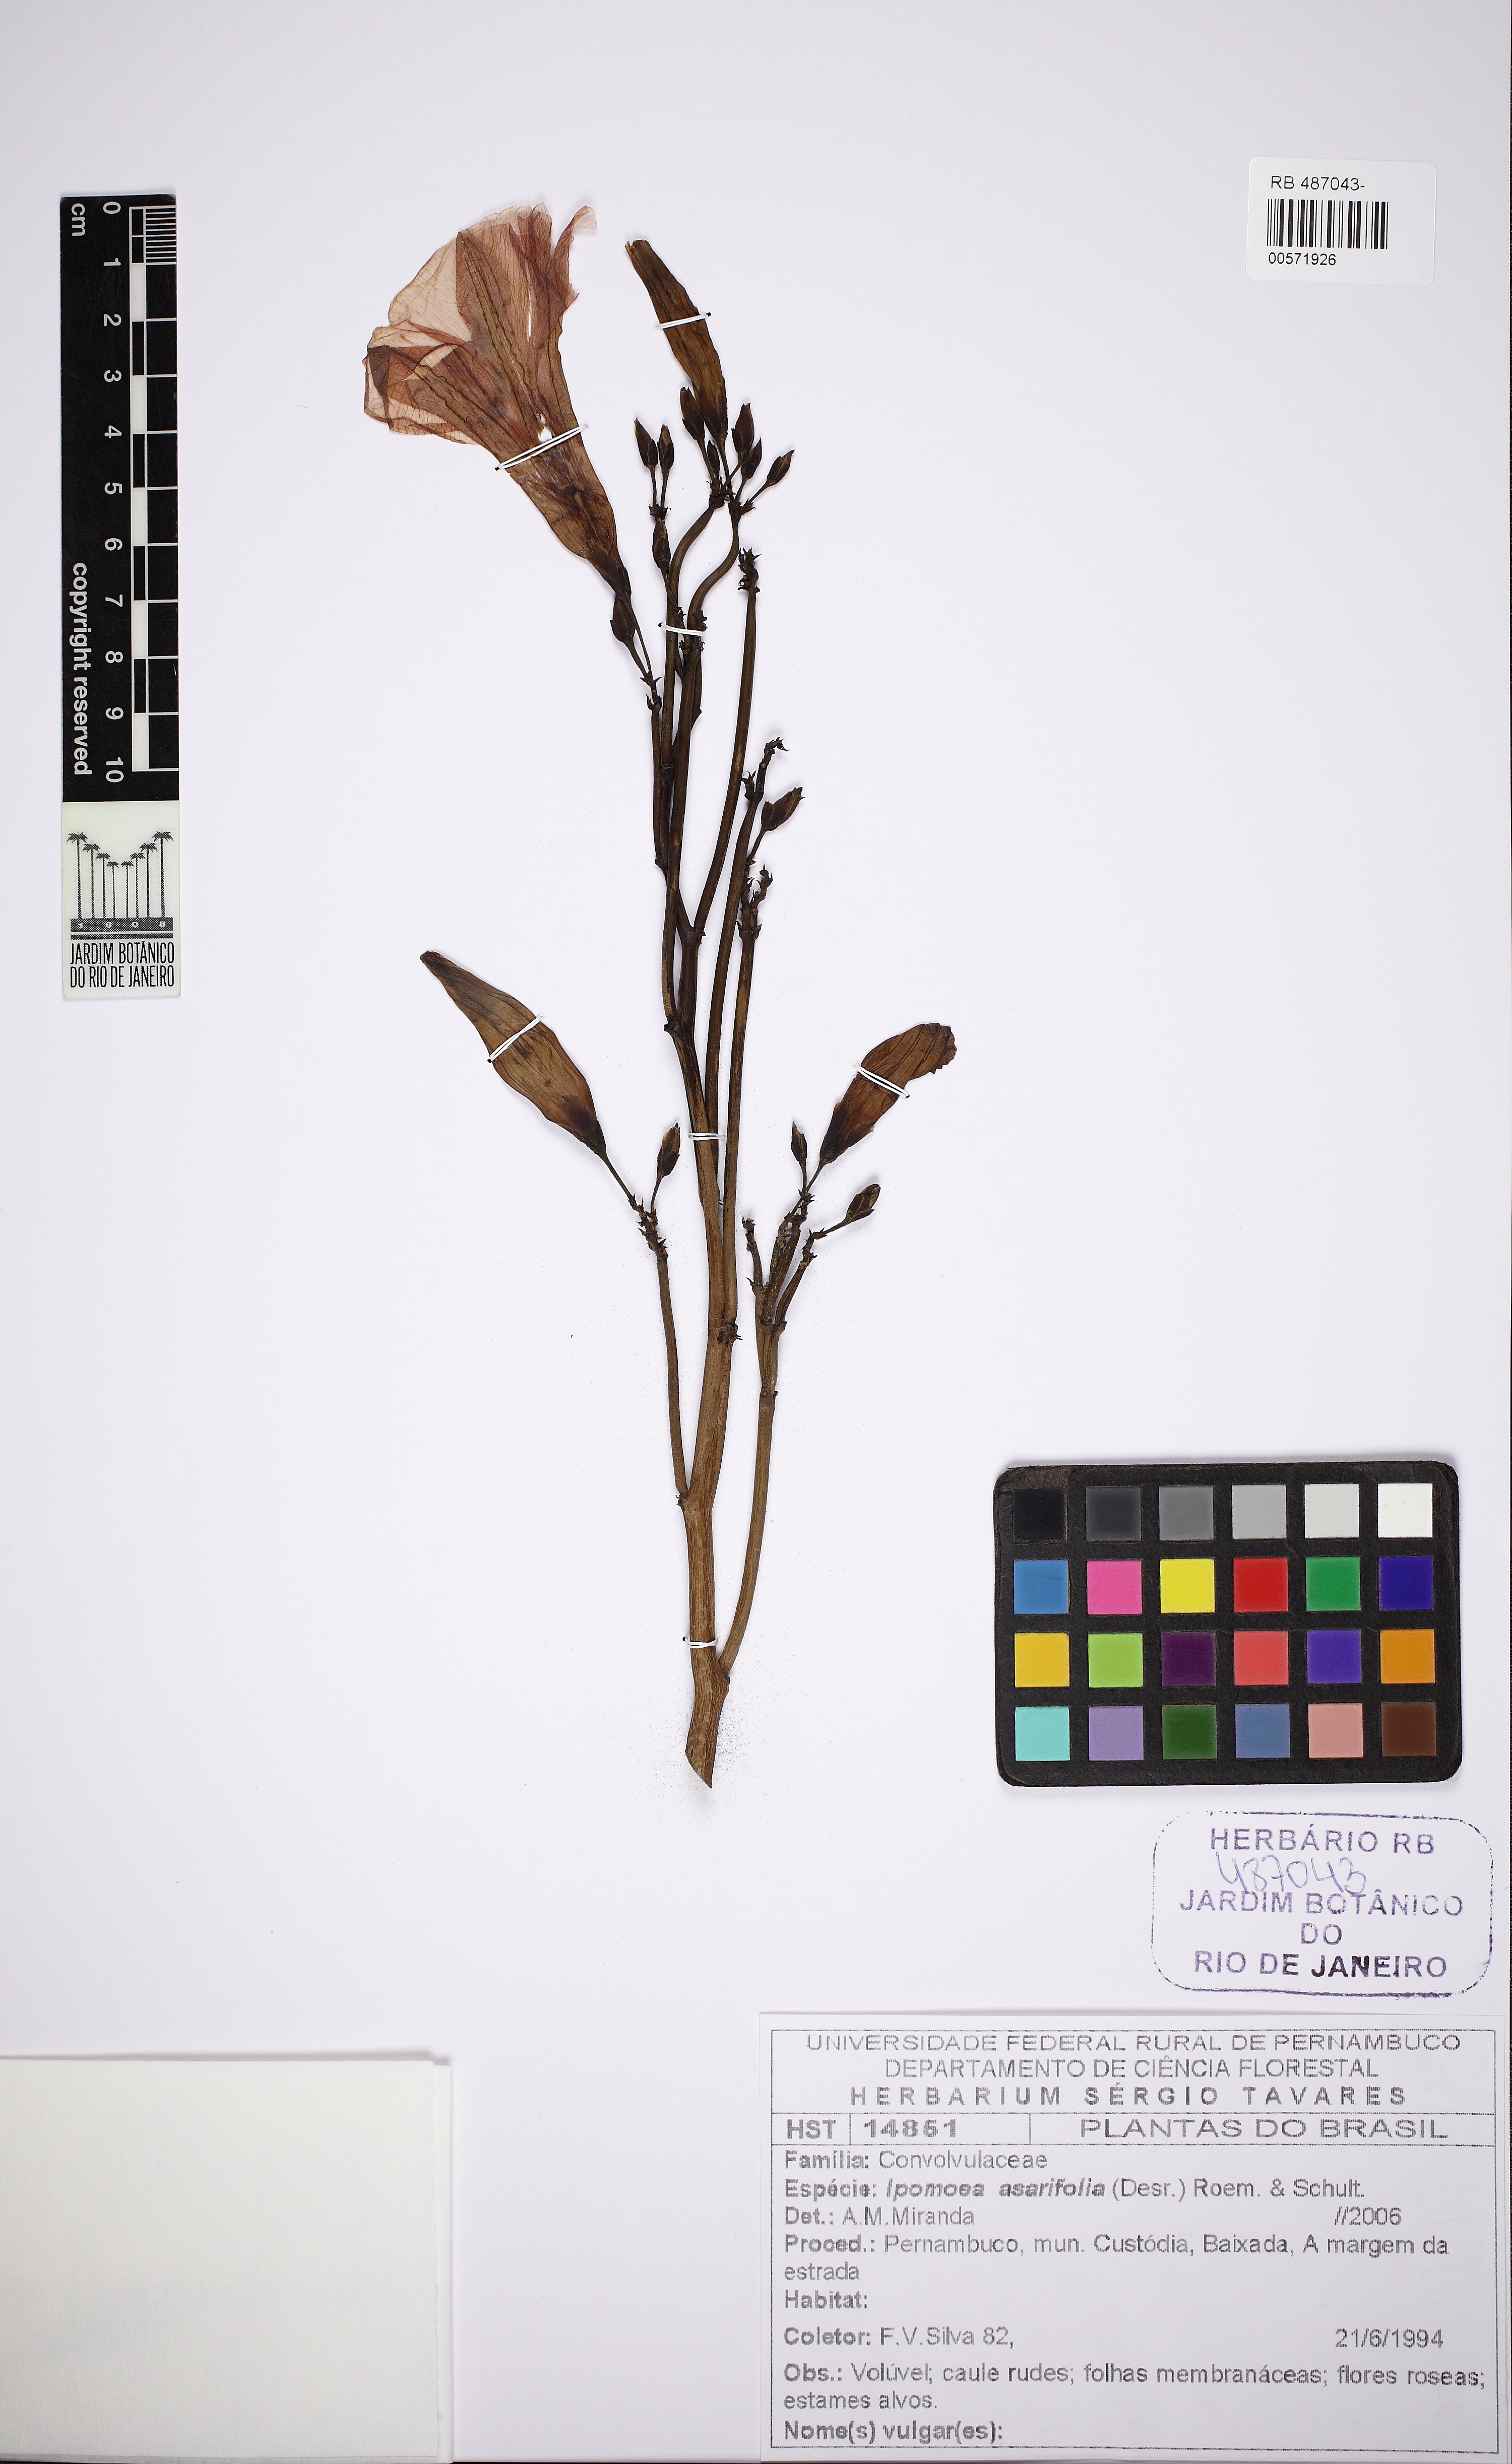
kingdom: Plantae
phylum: Tracheophyta
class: Magnoliopsida
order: Solanales
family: Convolvulaceae
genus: Ipomoea
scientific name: Ipomoea asarifolia
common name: Ginger-leaf morning-glory
